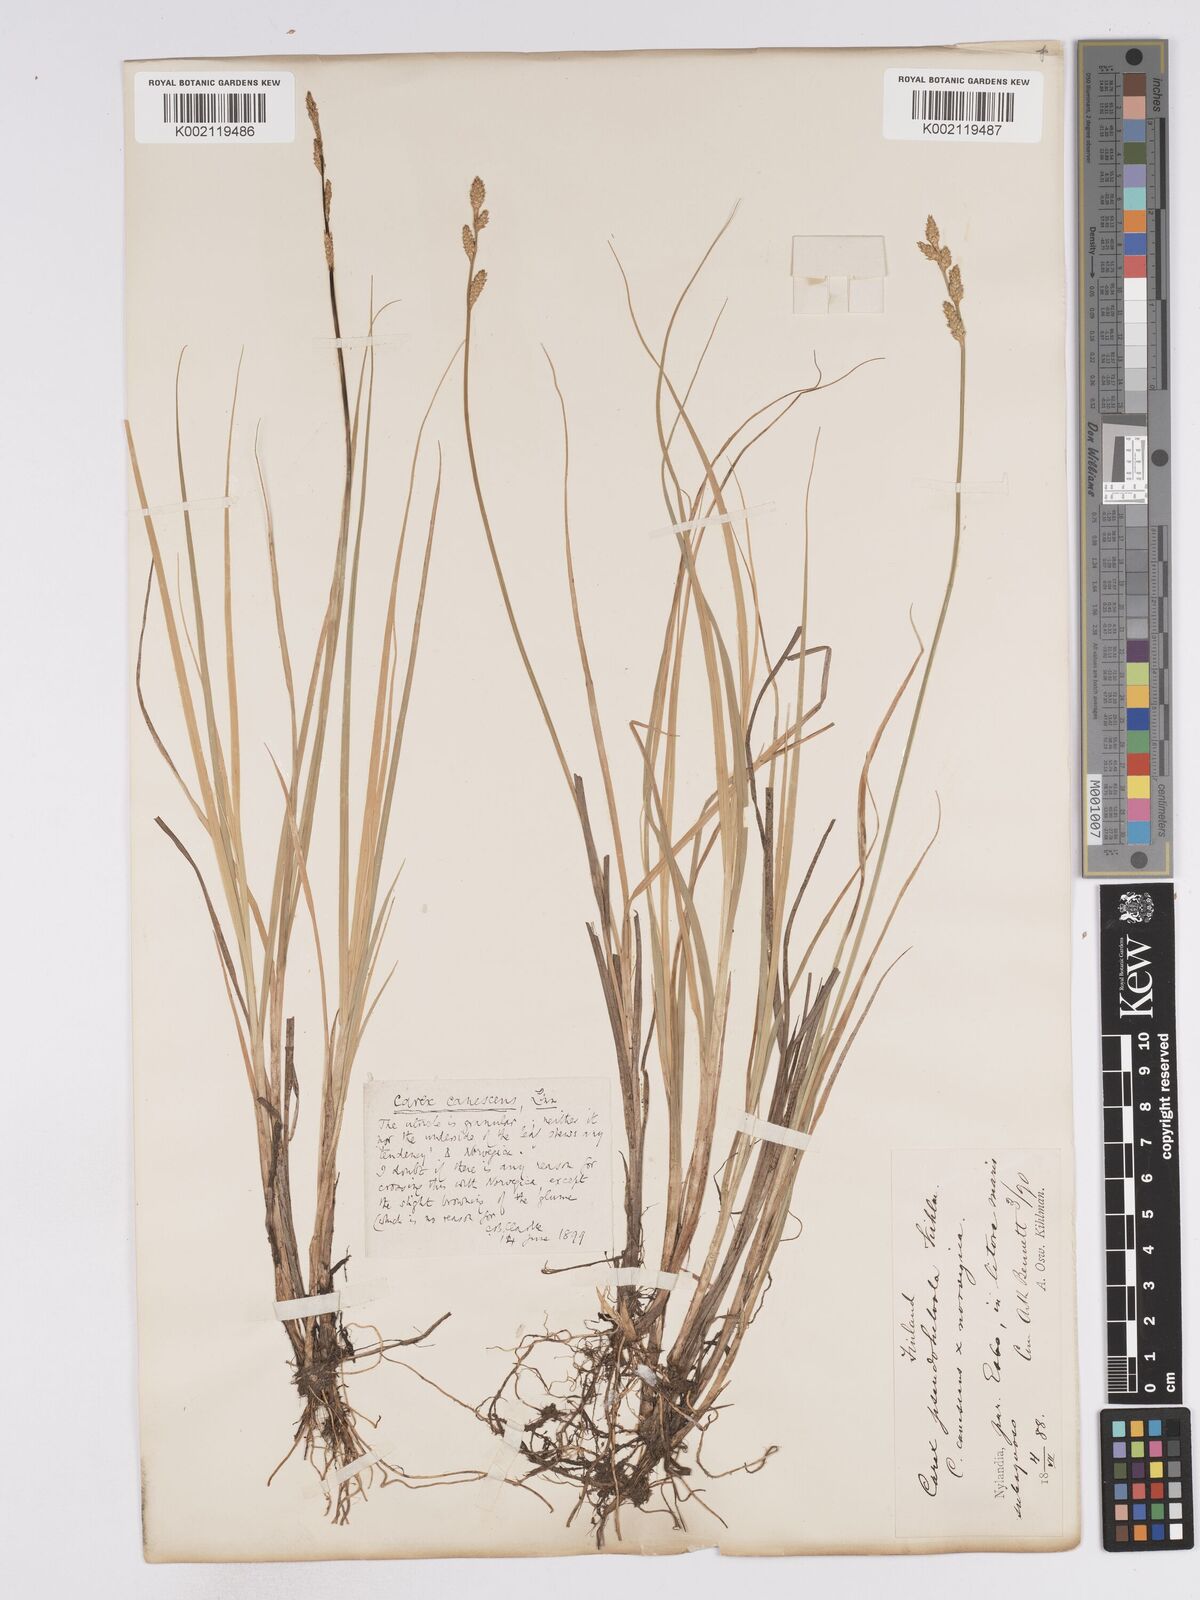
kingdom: Plantae
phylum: Tracheophyta
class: Liliopsida
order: Poales
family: Cyperaceae
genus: Carex
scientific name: Carex mackenziei
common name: Mackenzie's sedge
